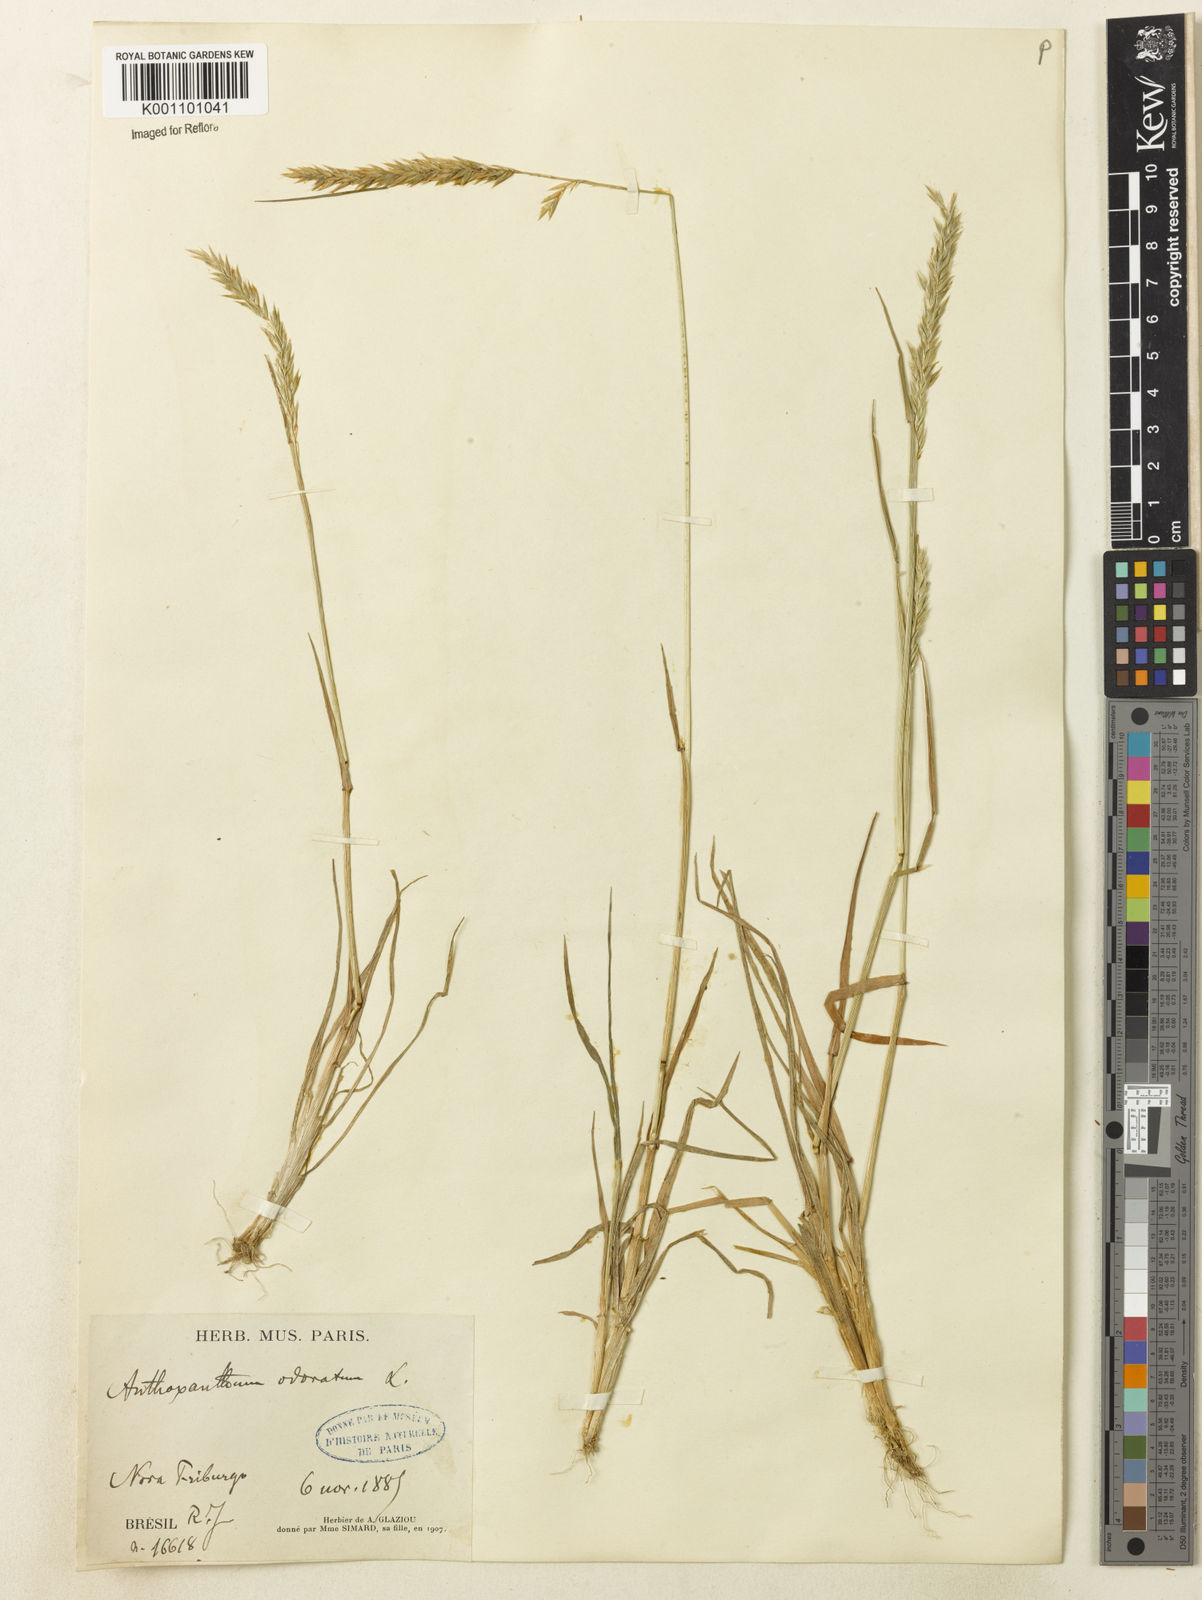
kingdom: Plantae
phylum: Tracheophyta
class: Liliopsida
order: Poales
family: Poaceae
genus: Anthoxanthum
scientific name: Anthoxanthum odoratum
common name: Sweet vernalgrass
